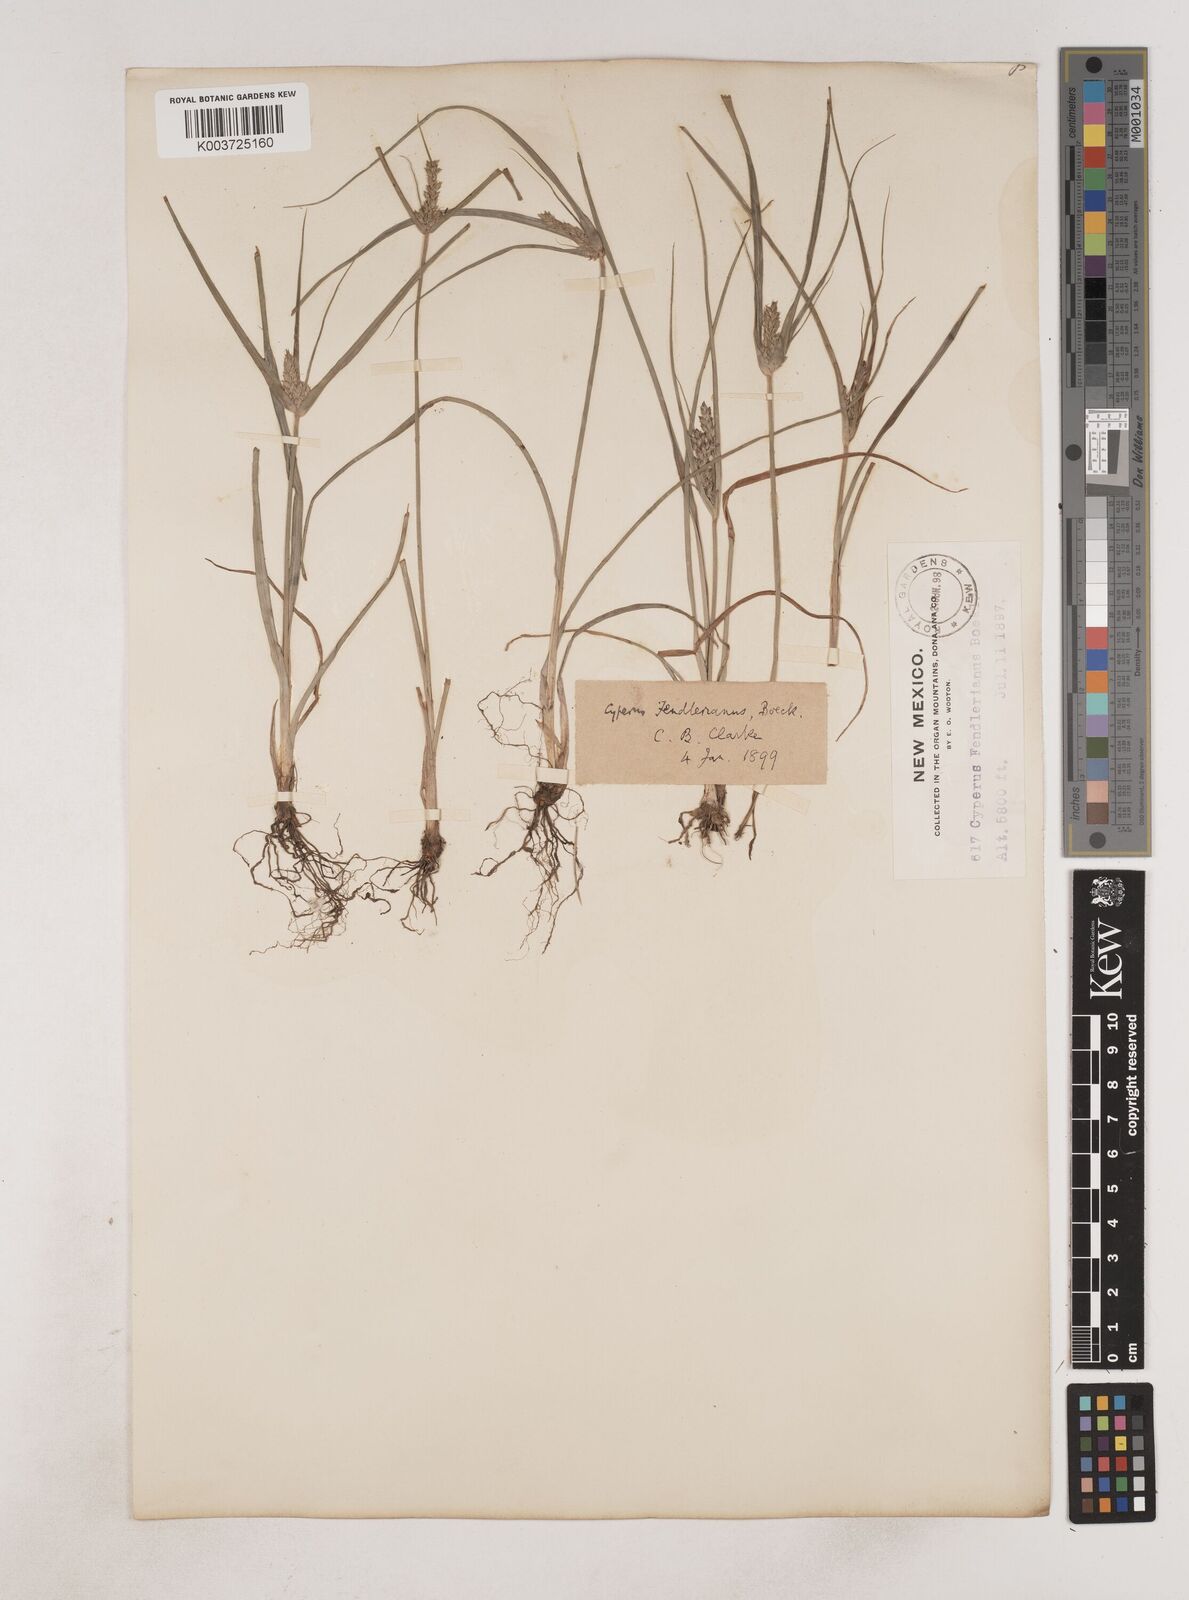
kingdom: Plantae
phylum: Tracheophyta
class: Liliopsida
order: Poales
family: Cyperaceae
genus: Cyperus
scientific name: Cyperus fendlerianus
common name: Fendler flat sedge
